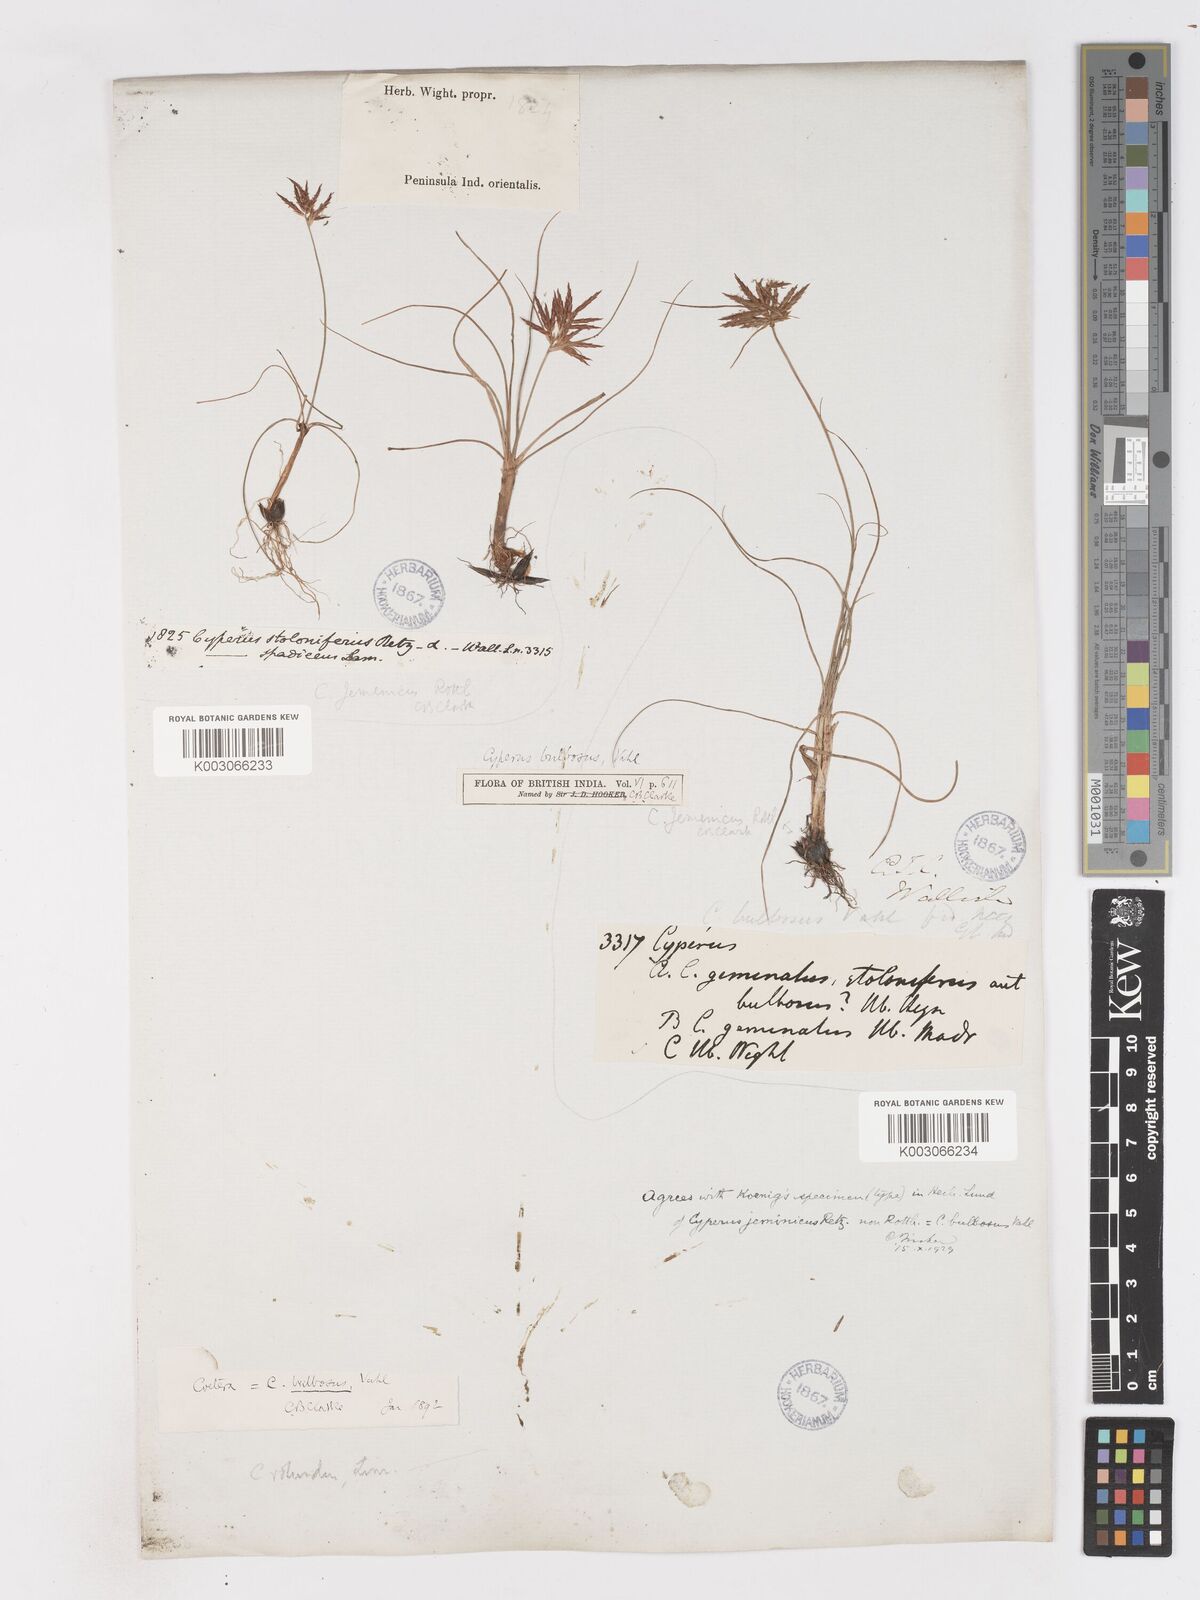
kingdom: Plantae
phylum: Tracheophyta
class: Liliopsida
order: Poales
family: Cyperaceae
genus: Cyperus
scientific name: Cyperus bulbosus
